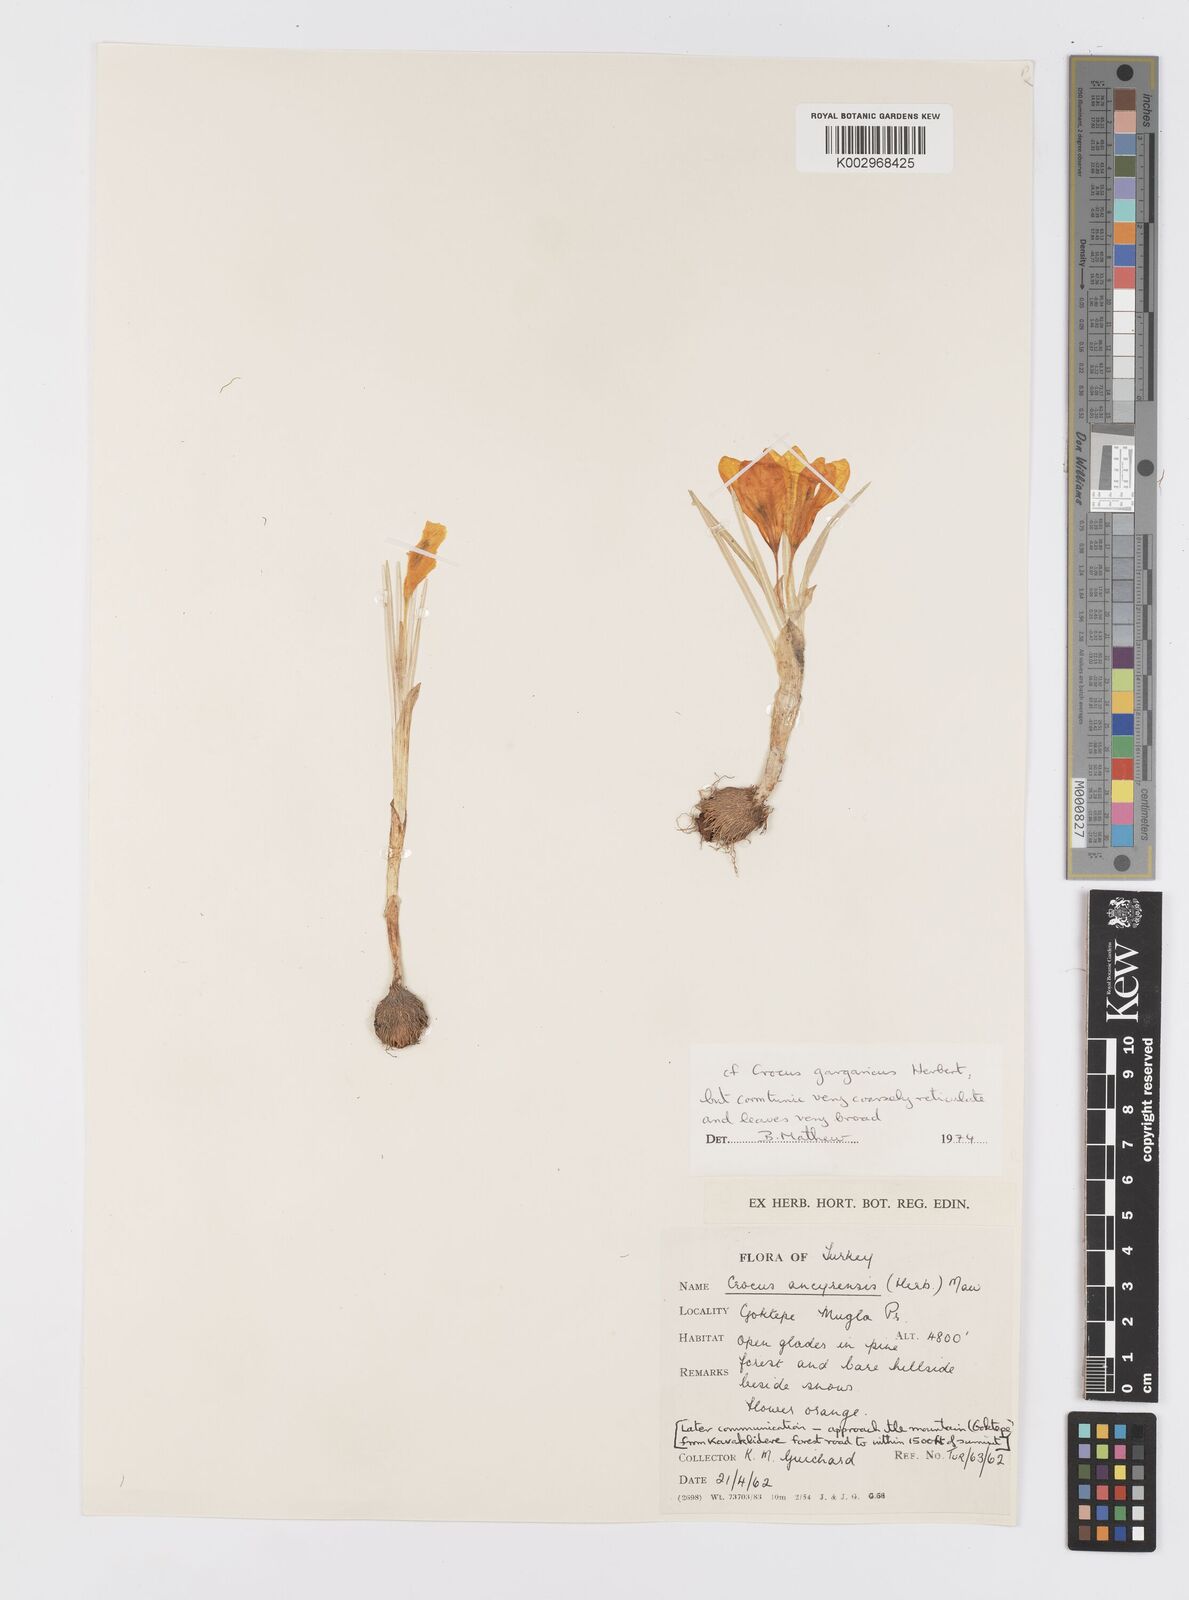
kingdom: Plantae
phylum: Tracheophyta
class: Liliopsida
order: Asparagales
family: Iridaceae
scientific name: Iridaceae
